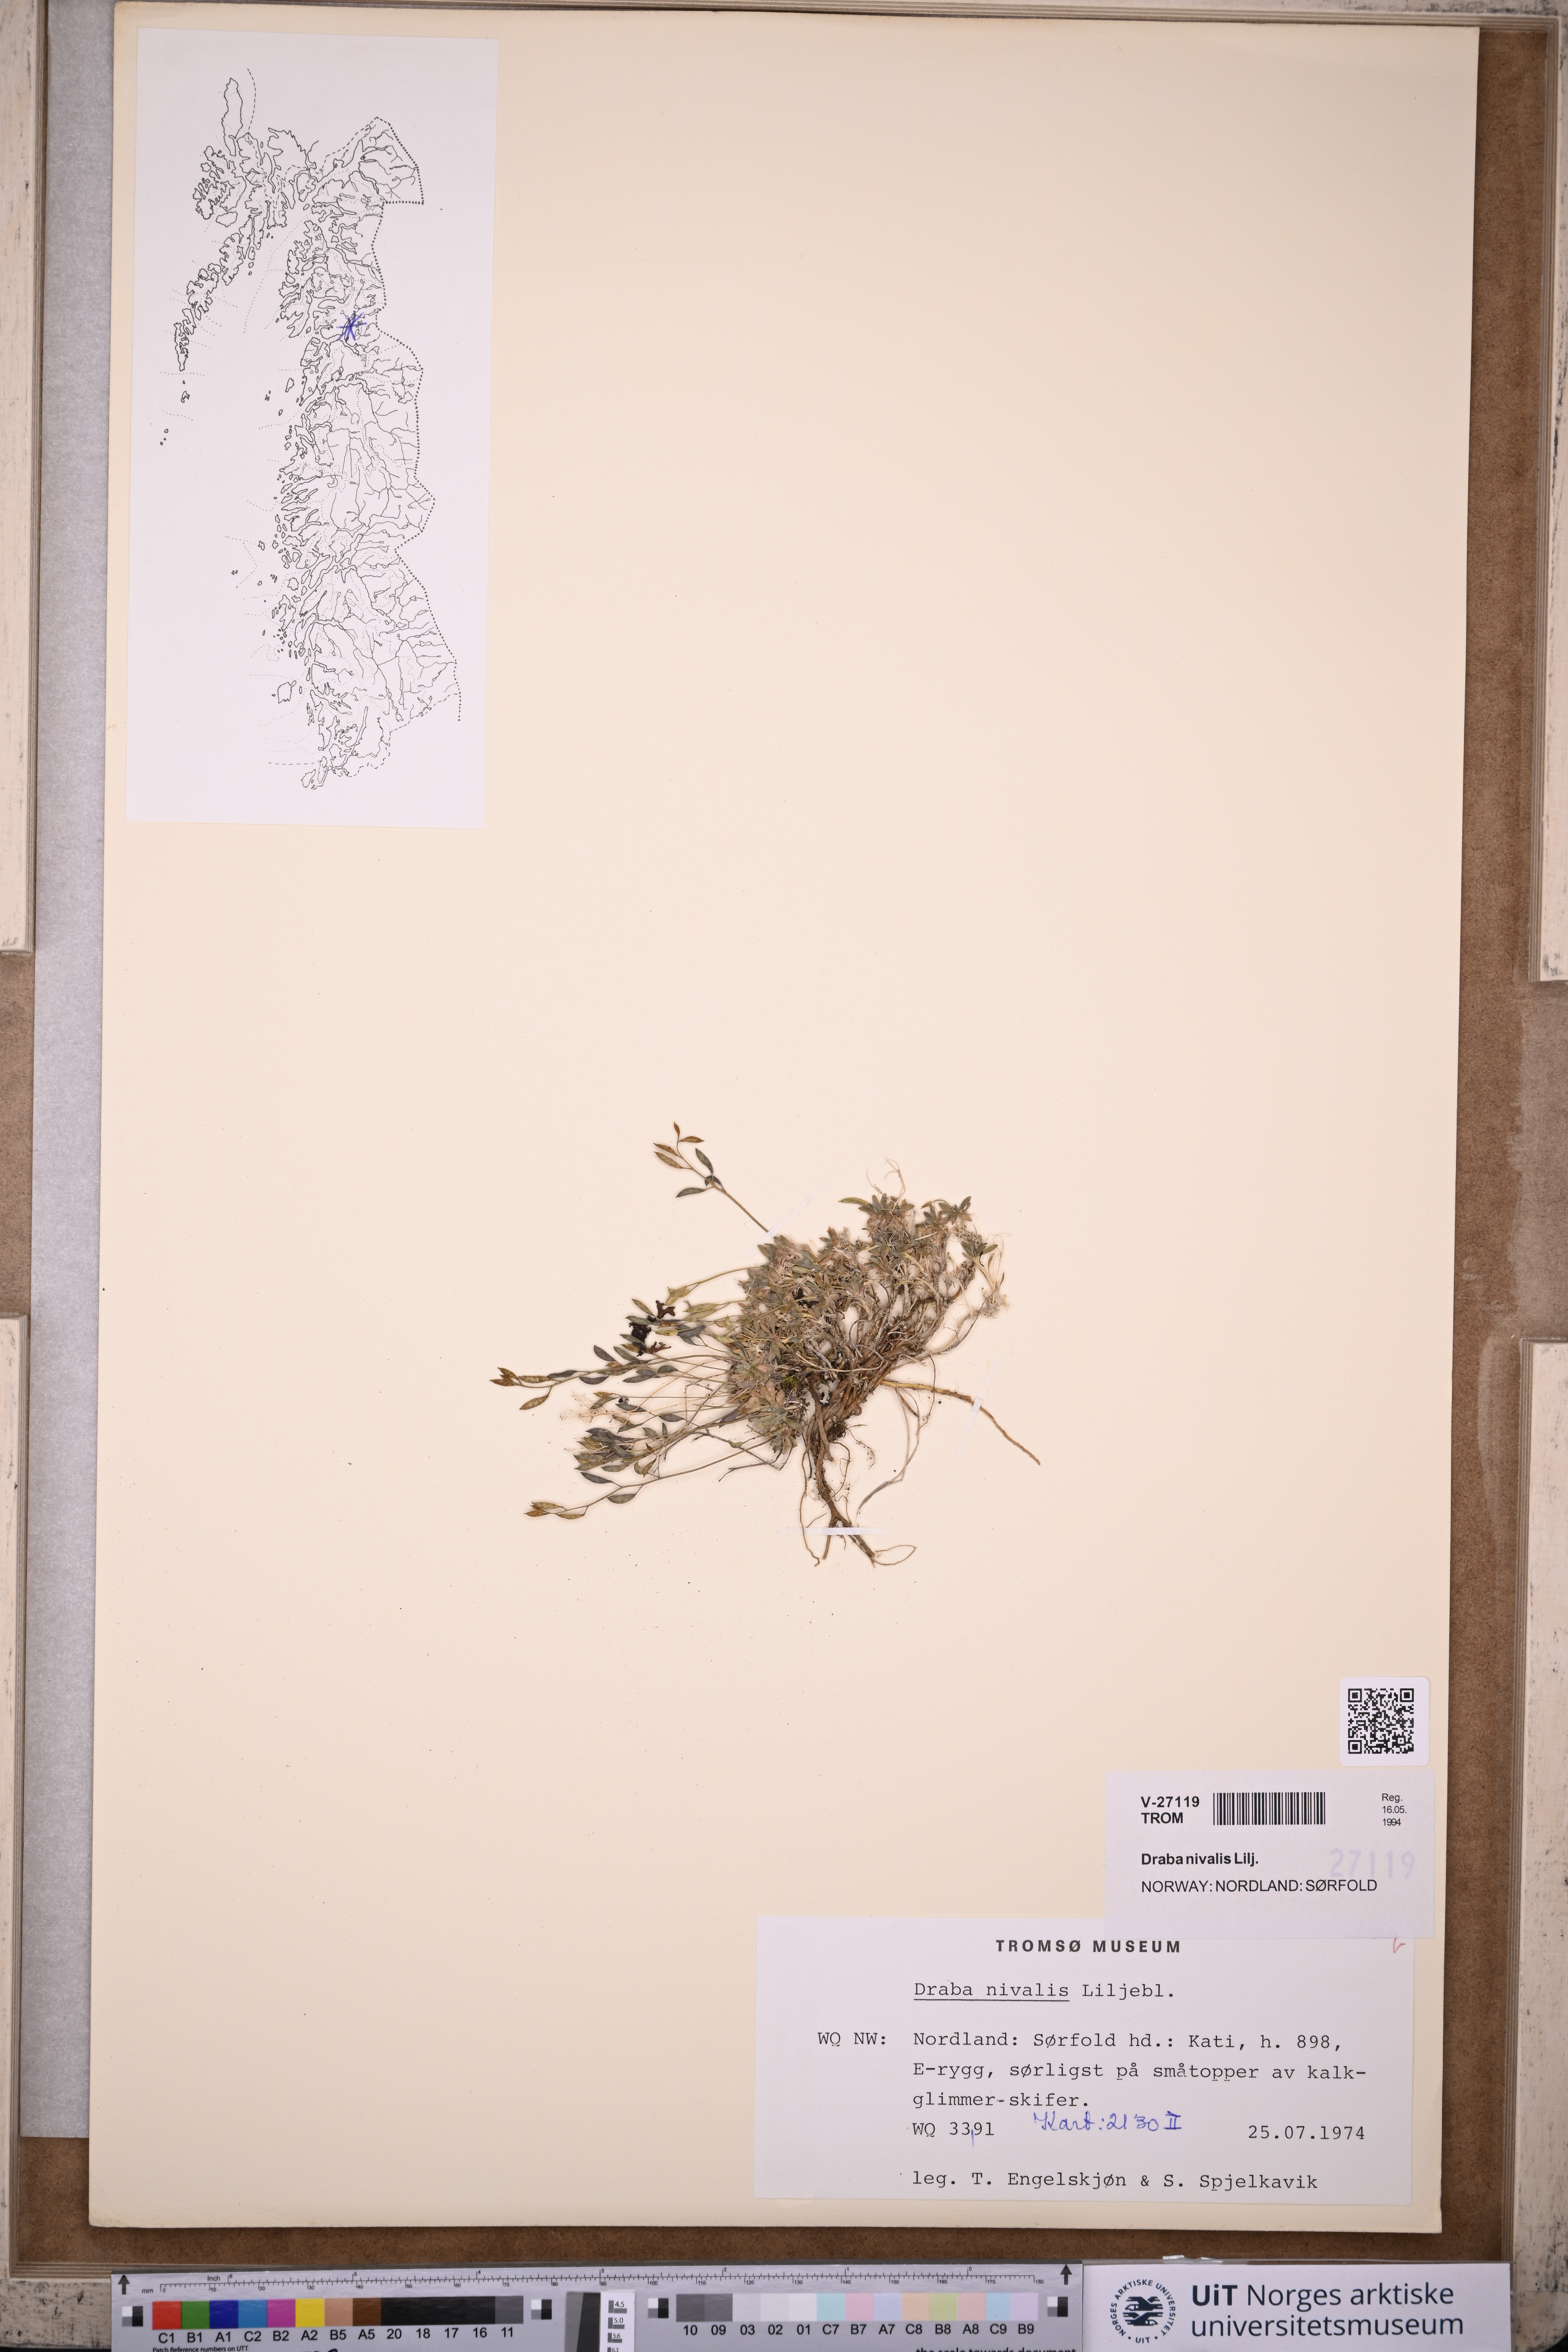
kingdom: Plantae
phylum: Tracheophyta
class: Magnoliopsida
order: Brassicales
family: Brassicaceae
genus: Draba
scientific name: Draba nivalis
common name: Snow draba
